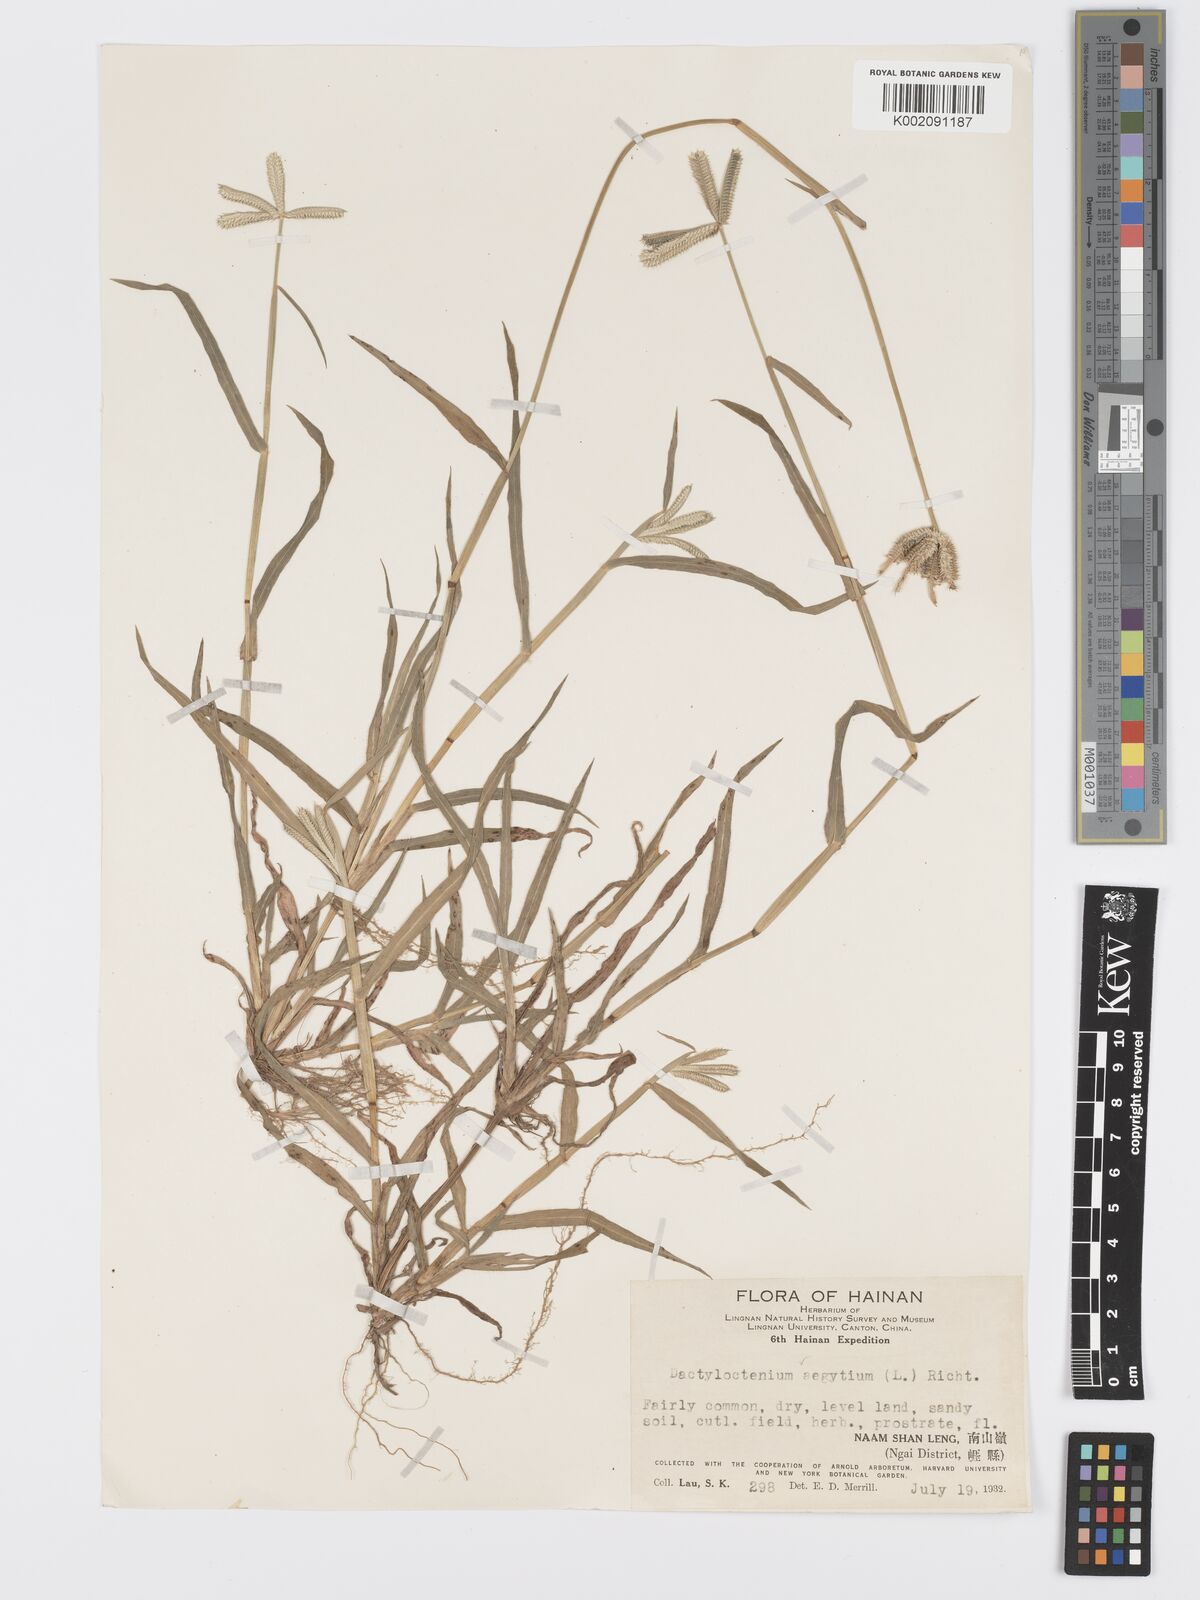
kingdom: Plantae
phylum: Tracheophyta
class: Liliopsida
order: Poales
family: Poaceae
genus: Dactyloctenium
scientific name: Dactyloctenium aegyptium
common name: Egyptian grass
